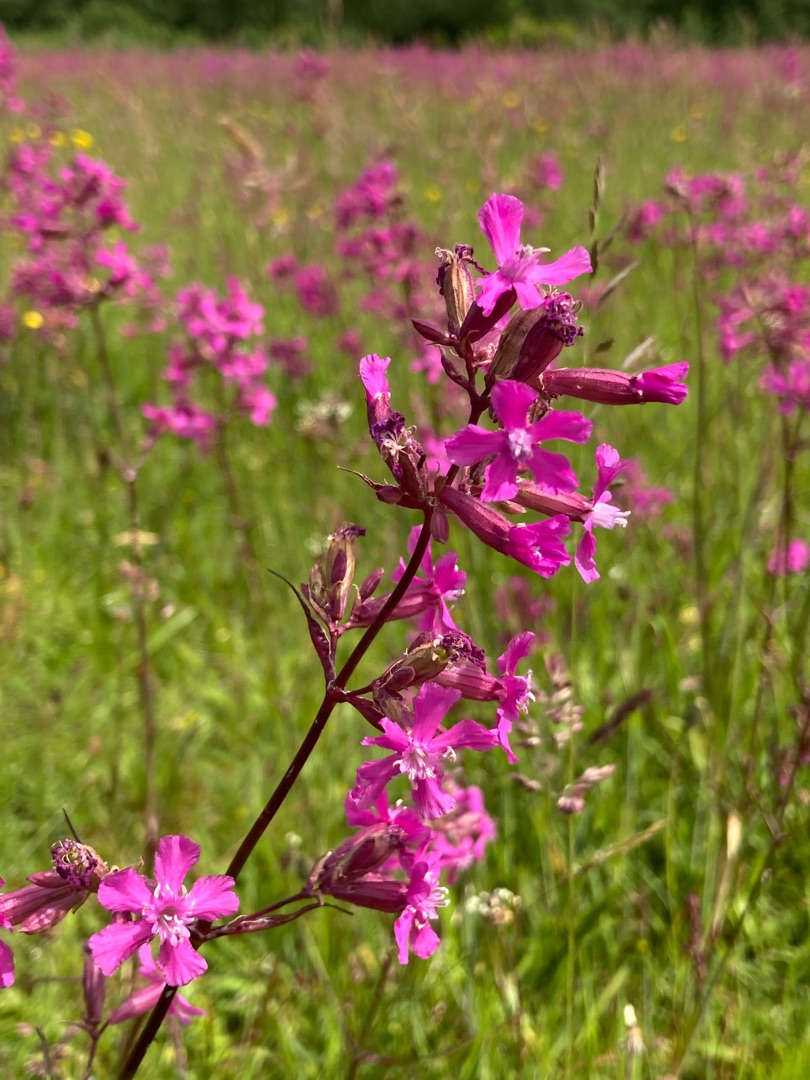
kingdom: Plantae
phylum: Tracheophyta
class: Magnoliopsida
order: Caryophyllales
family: Caryophyllaceae
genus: Viscaria
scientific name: Viscaria vulgaris
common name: Tjærenellike
